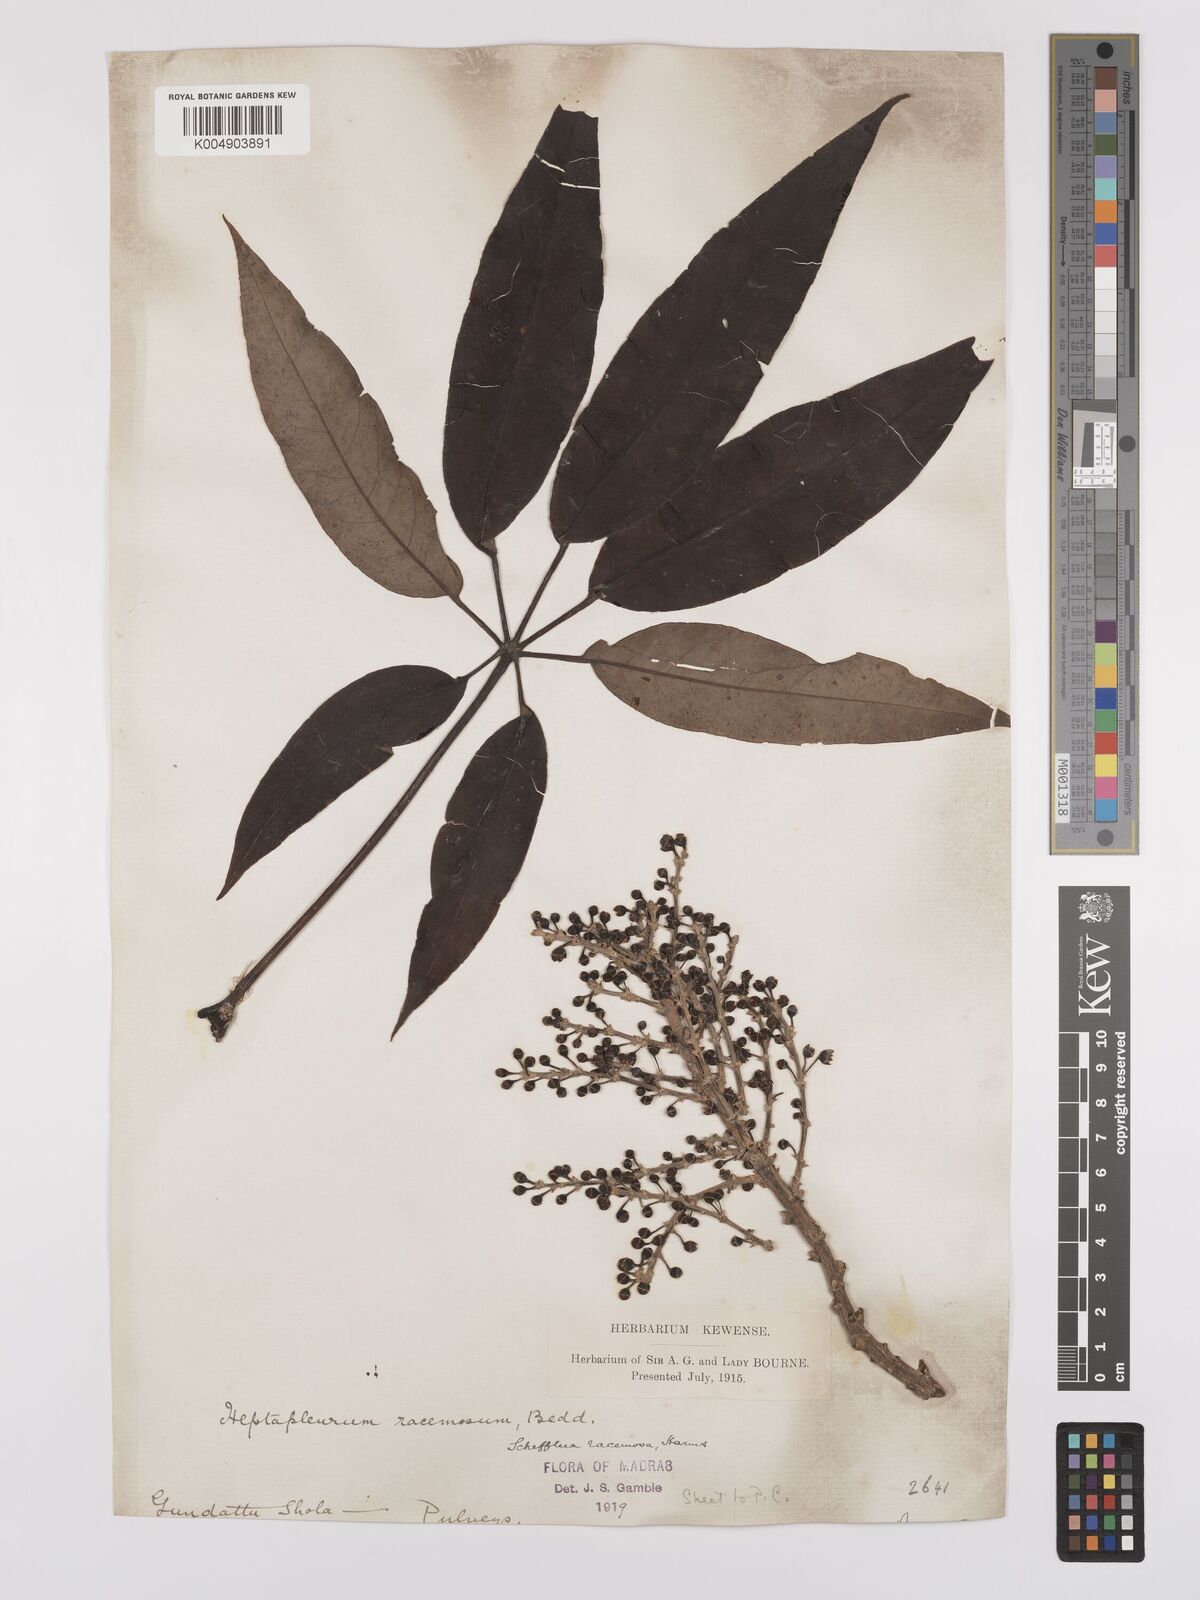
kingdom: Plantae
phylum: Tracheophyta
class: Magnoliopsida
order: Apiales
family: Araliaceae
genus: Heptapleurum
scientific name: Heptapleurum racemosum
